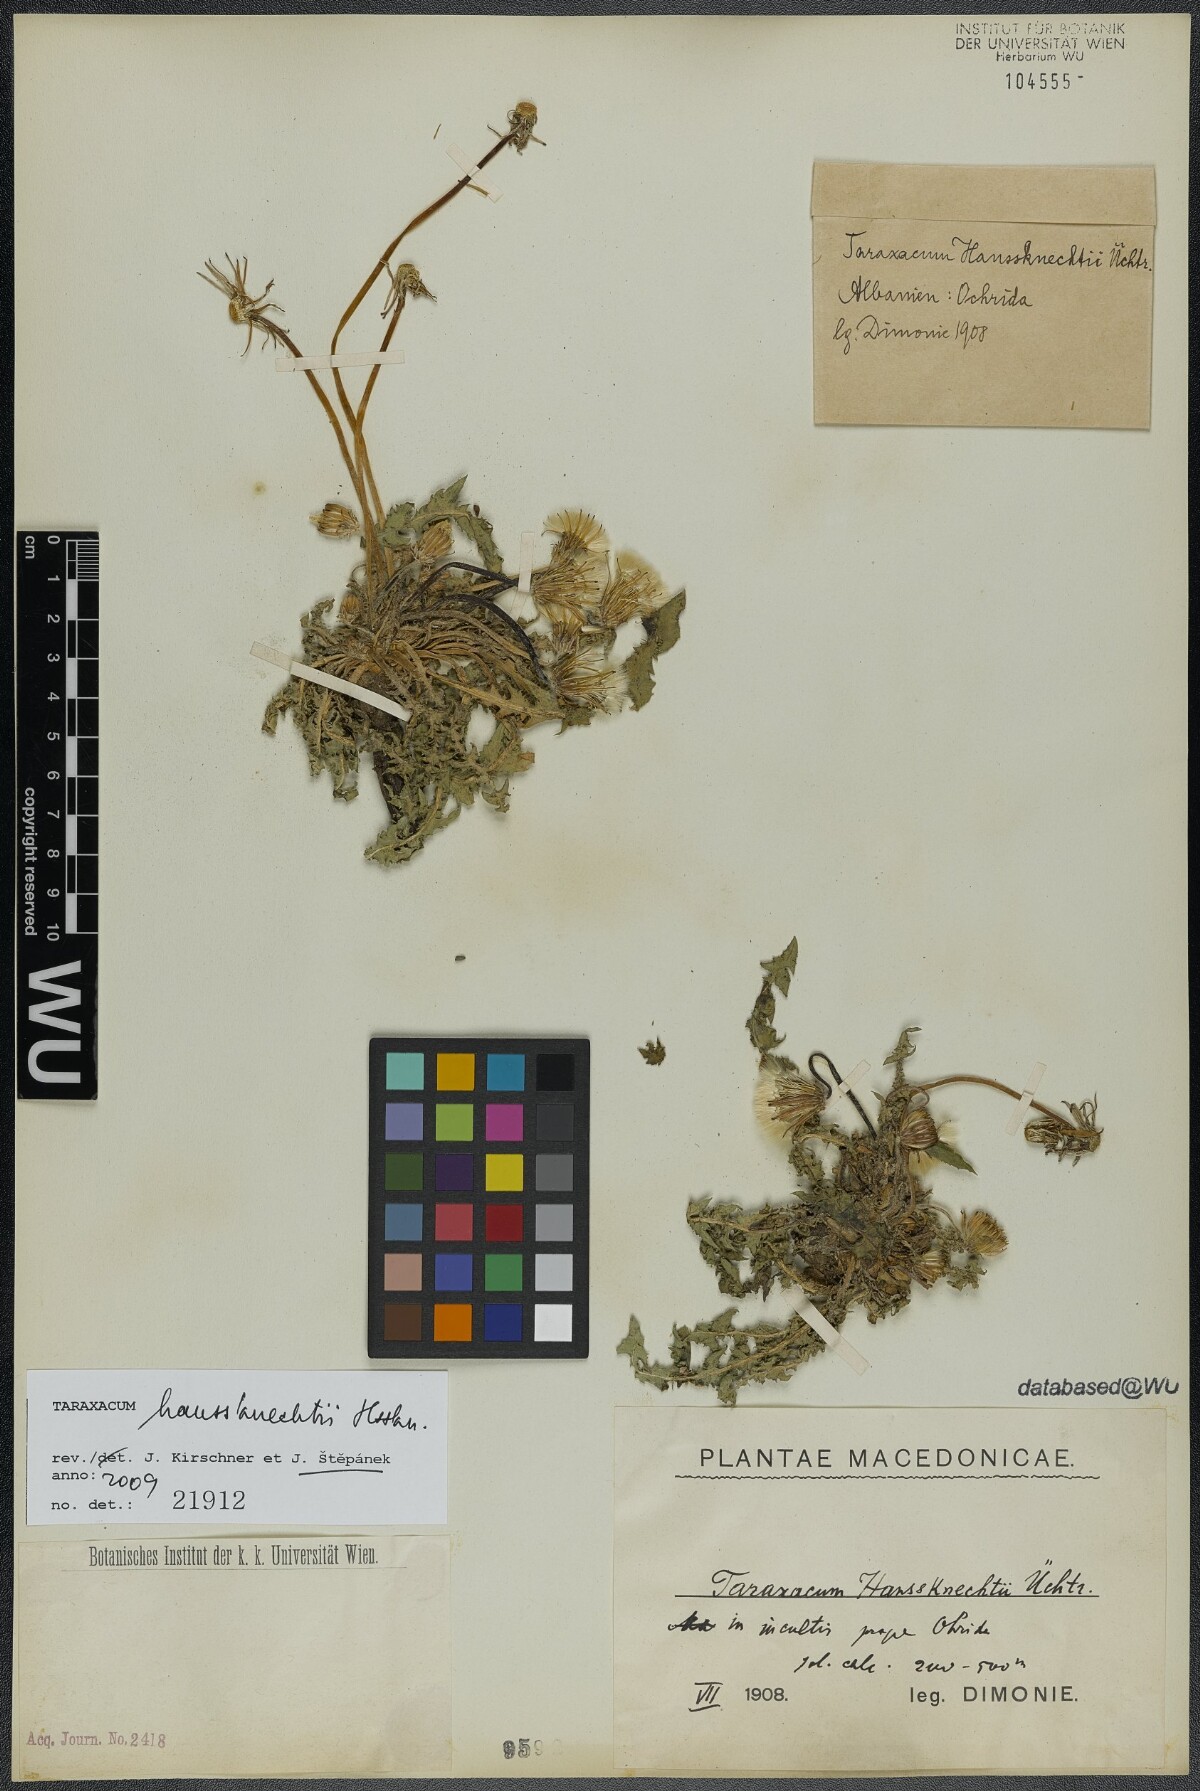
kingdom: Plantae
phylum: Tracheophyta
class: Magnoliopsida
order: Asterales
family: Asteraceae
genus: Taraxacum
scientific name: Taraxacum haussknechtii
